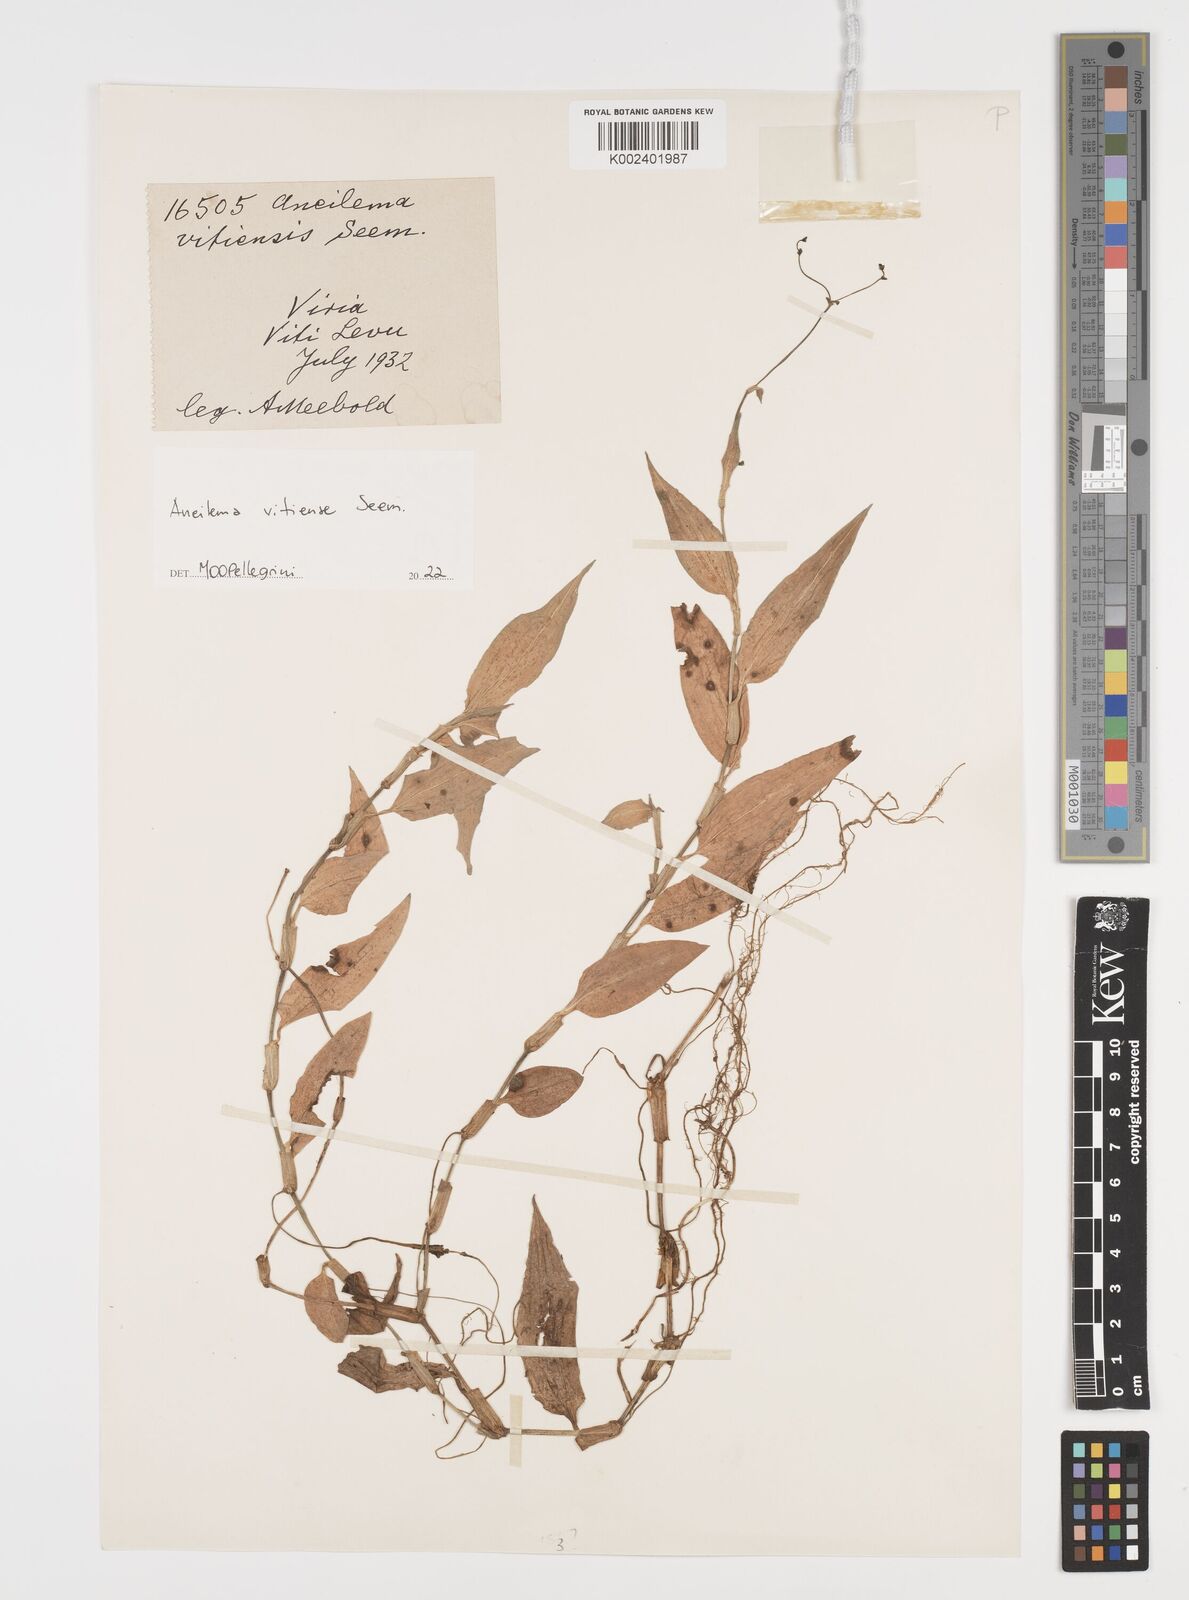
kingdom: Plantae
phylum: Tracheophyta
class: Liliopsida
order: Commelinales
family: Commelinaceae
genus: Rhopalephora
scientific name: Rhopalephora vitiensis
